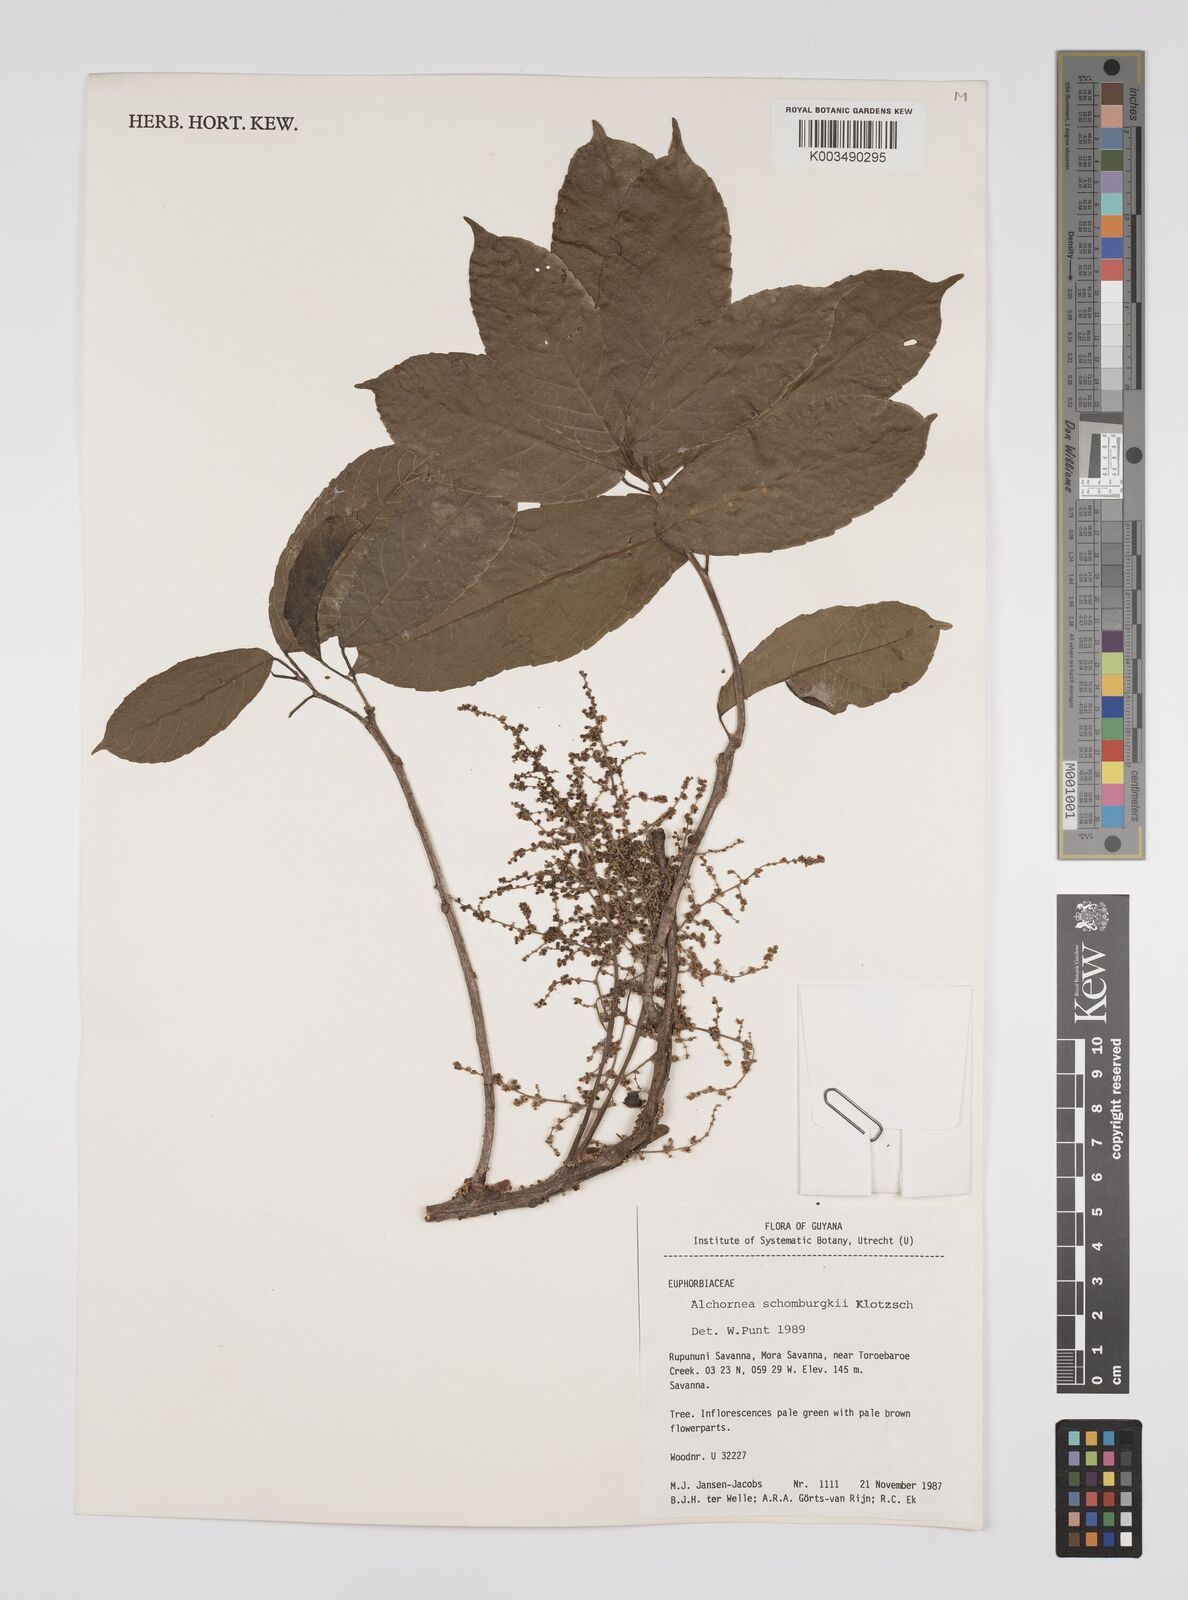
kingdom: Plantae
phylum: Tracheophyta
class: Magnoliopsida
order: Malpighiales
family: Euphorbiaceae
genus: Alchornea
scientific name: Alchornea discolor
